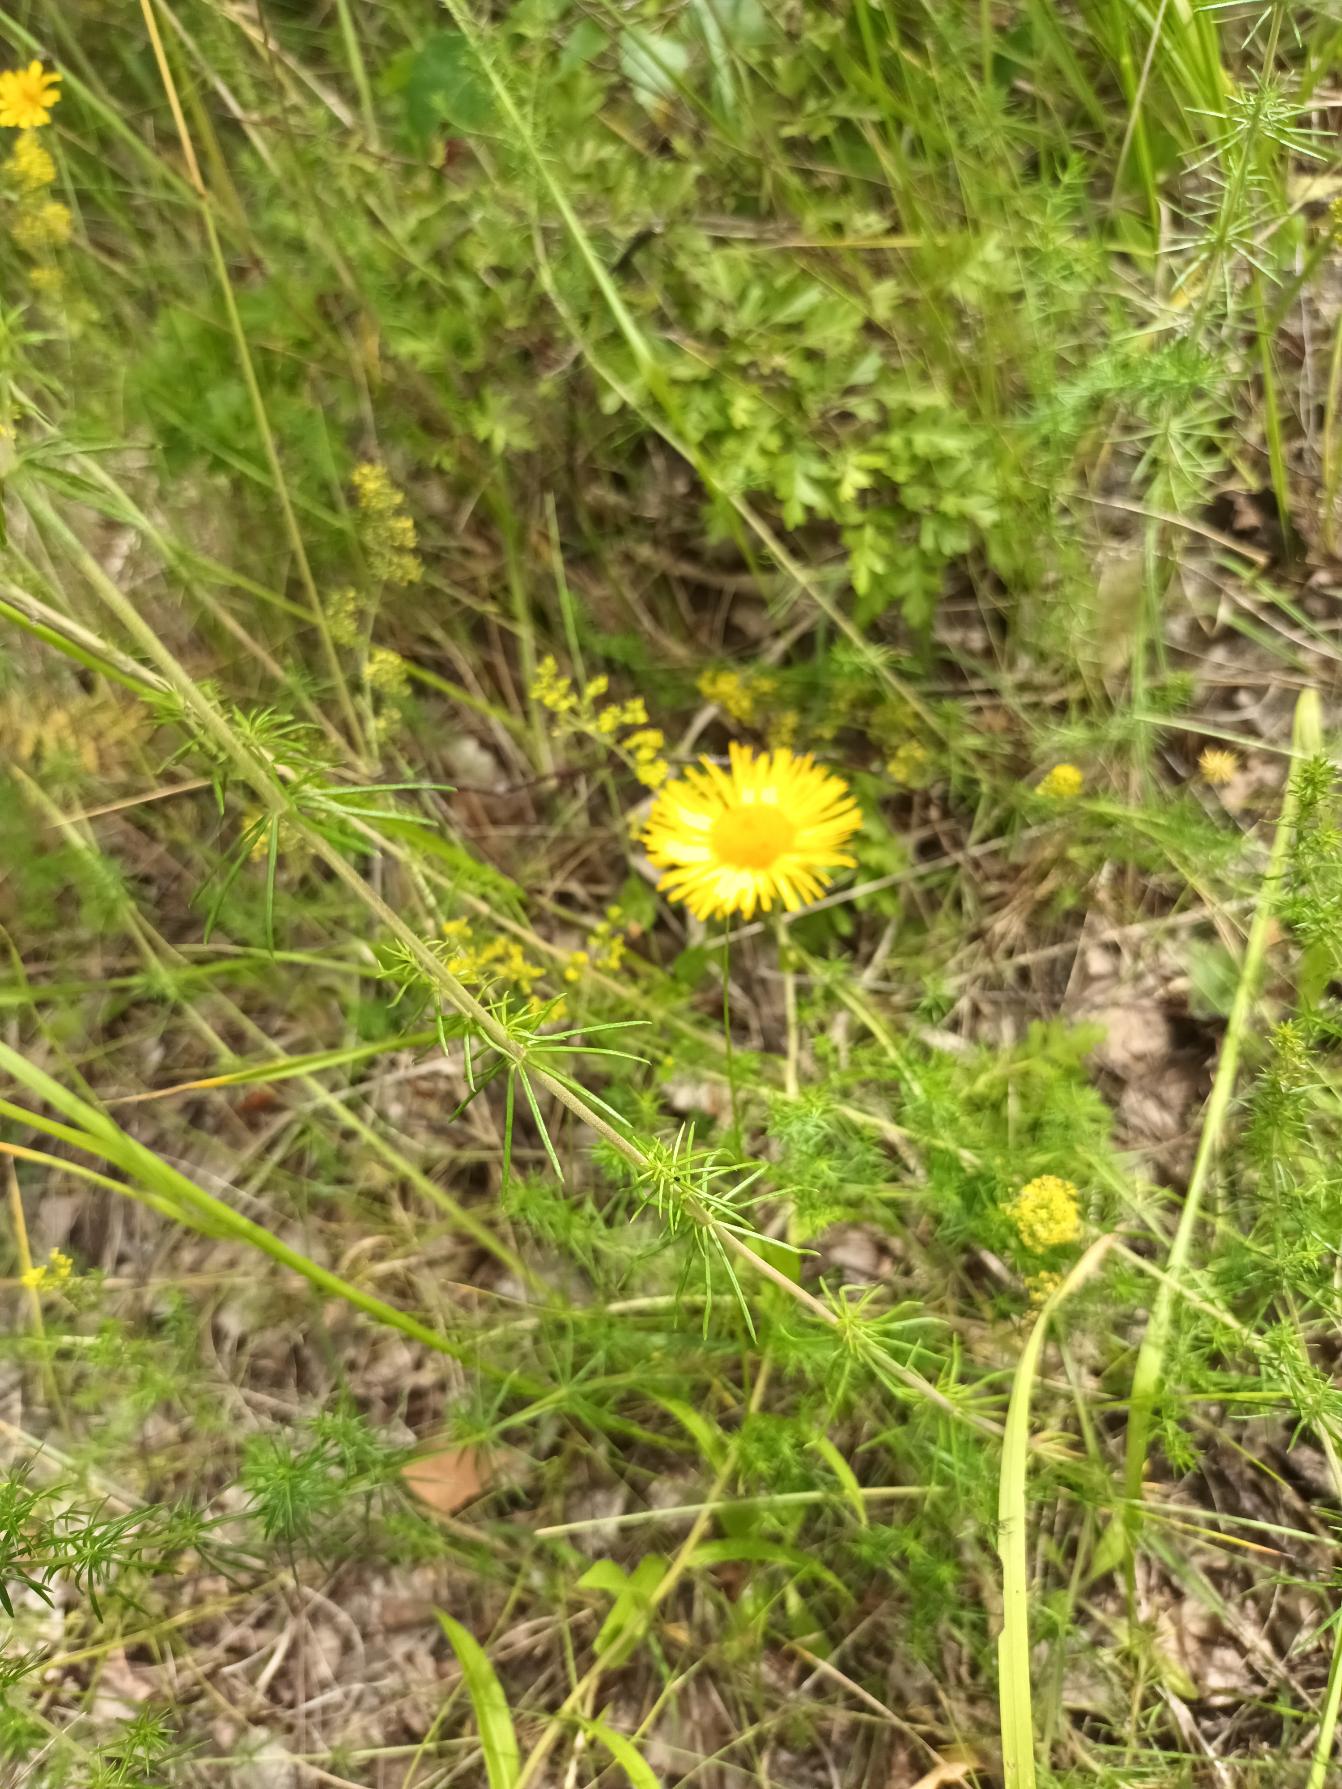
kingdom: Plantae
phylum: Tracheophyta
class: Magnoliopsida
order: Asterales
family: Asteraceae
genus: Pentanema
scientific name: Pentanema salicinum
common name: Pile-alant
